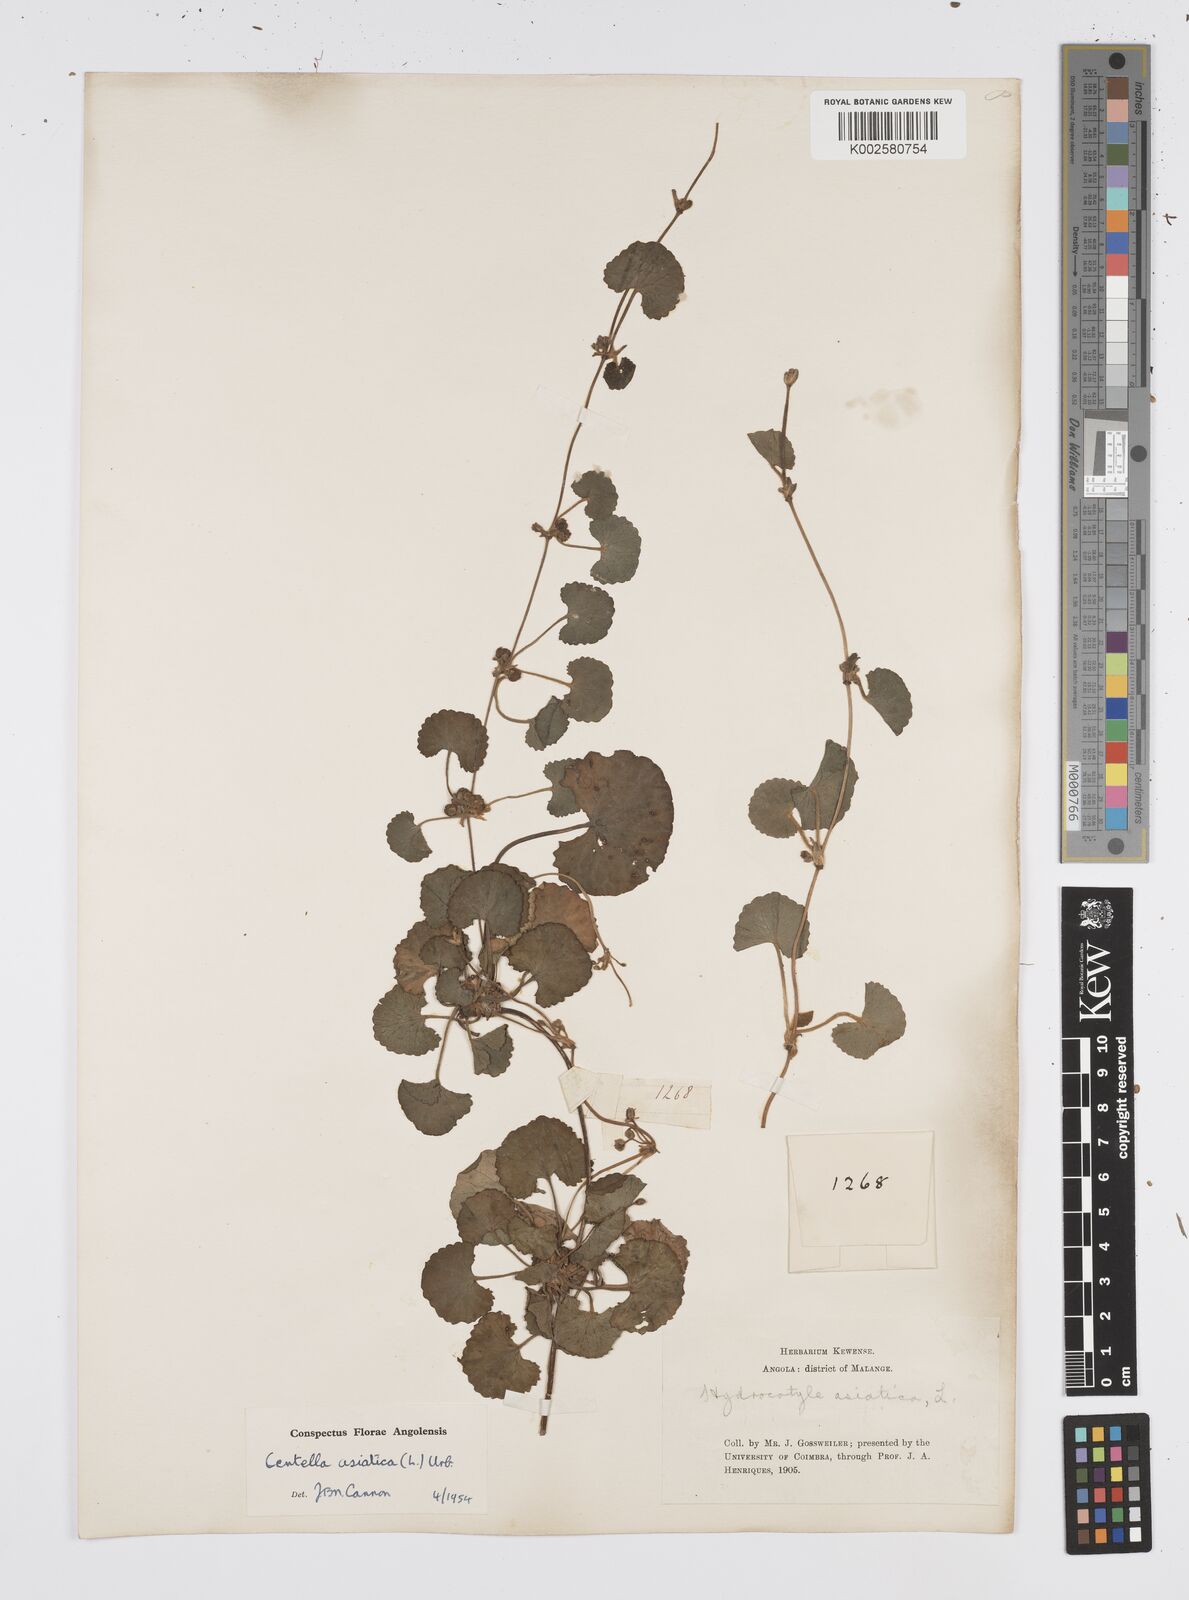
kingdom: Plantae
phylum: Tracheophyta
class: Magnoliopsida
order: Apiales
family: Apiaceae
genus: Centella
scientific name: Centella asiatica
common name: Spadeleaf
